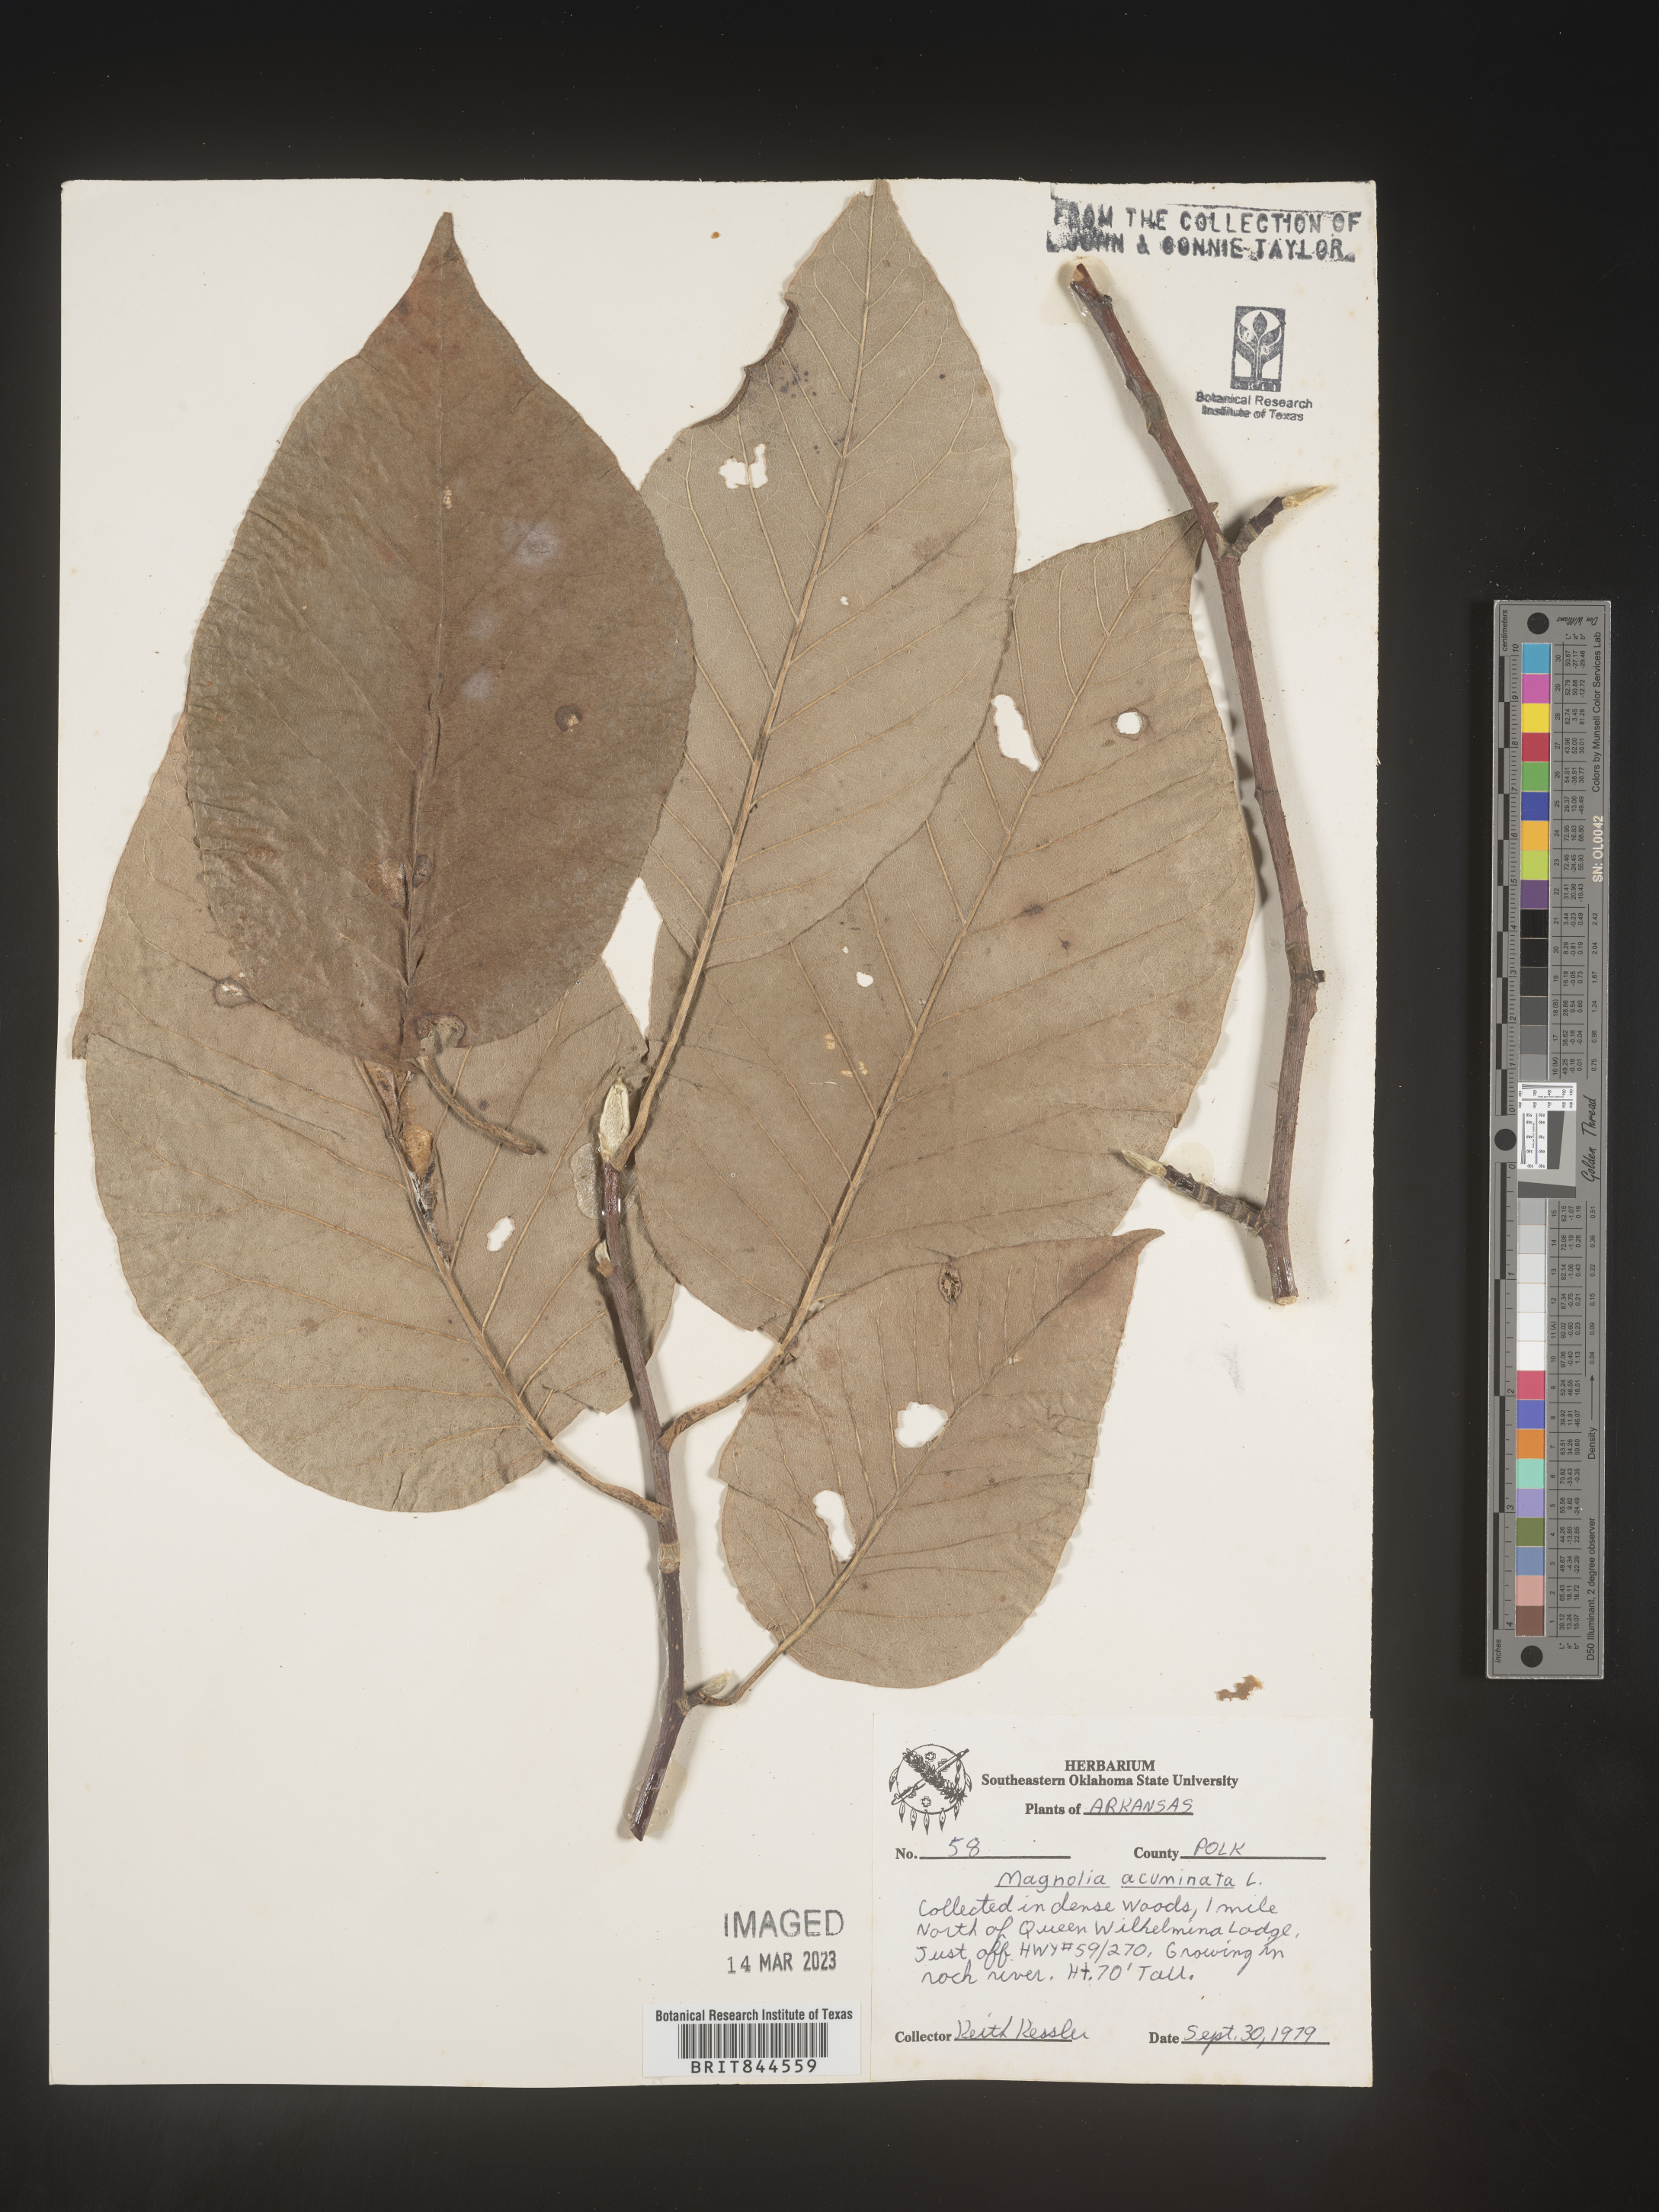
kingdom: Plantae
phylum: Tracheophyta
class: Magnoliopsida
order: Magnoliales
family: Magnoliaceae
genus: Magnolia
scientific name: Magnolia acuminata
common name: Cucumber magnolia
